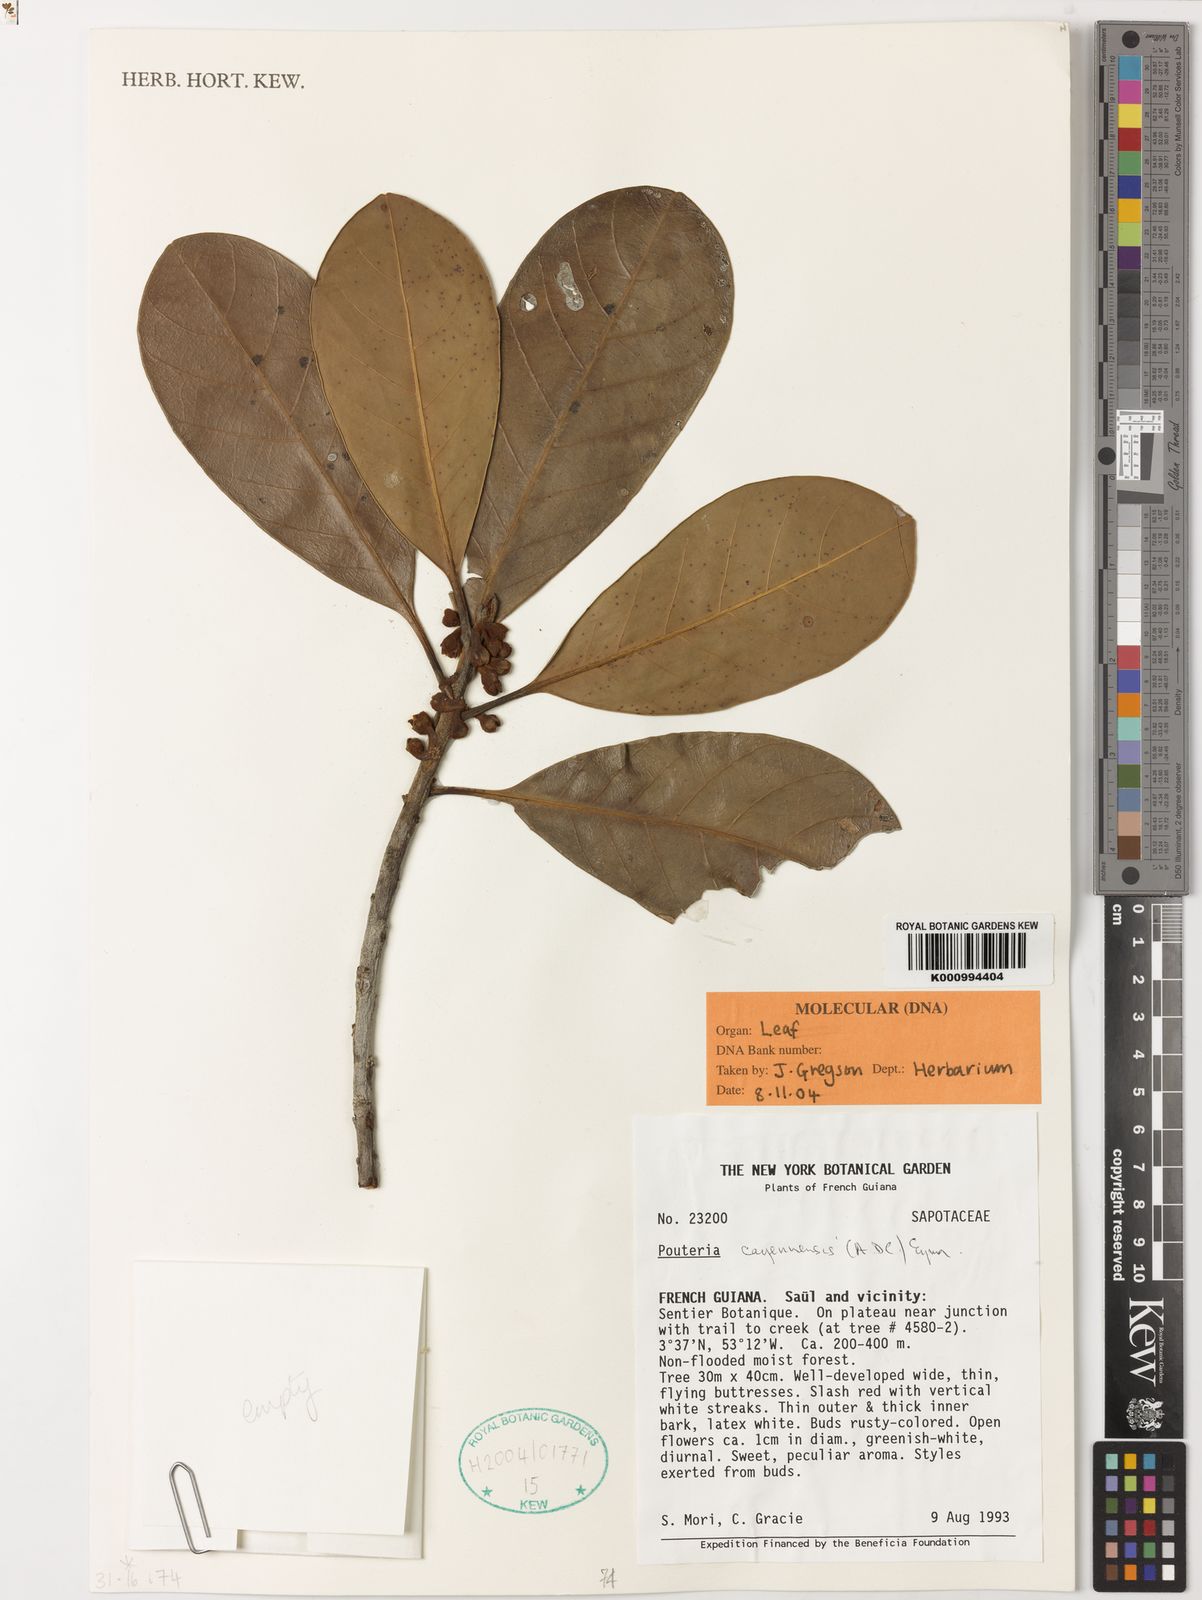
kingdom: Plantae
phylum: Tracheophyta
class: Magnoliopsida
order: Ericales
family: Sapotaceae
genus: Pouteria
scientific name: Pouteria cayennensis
